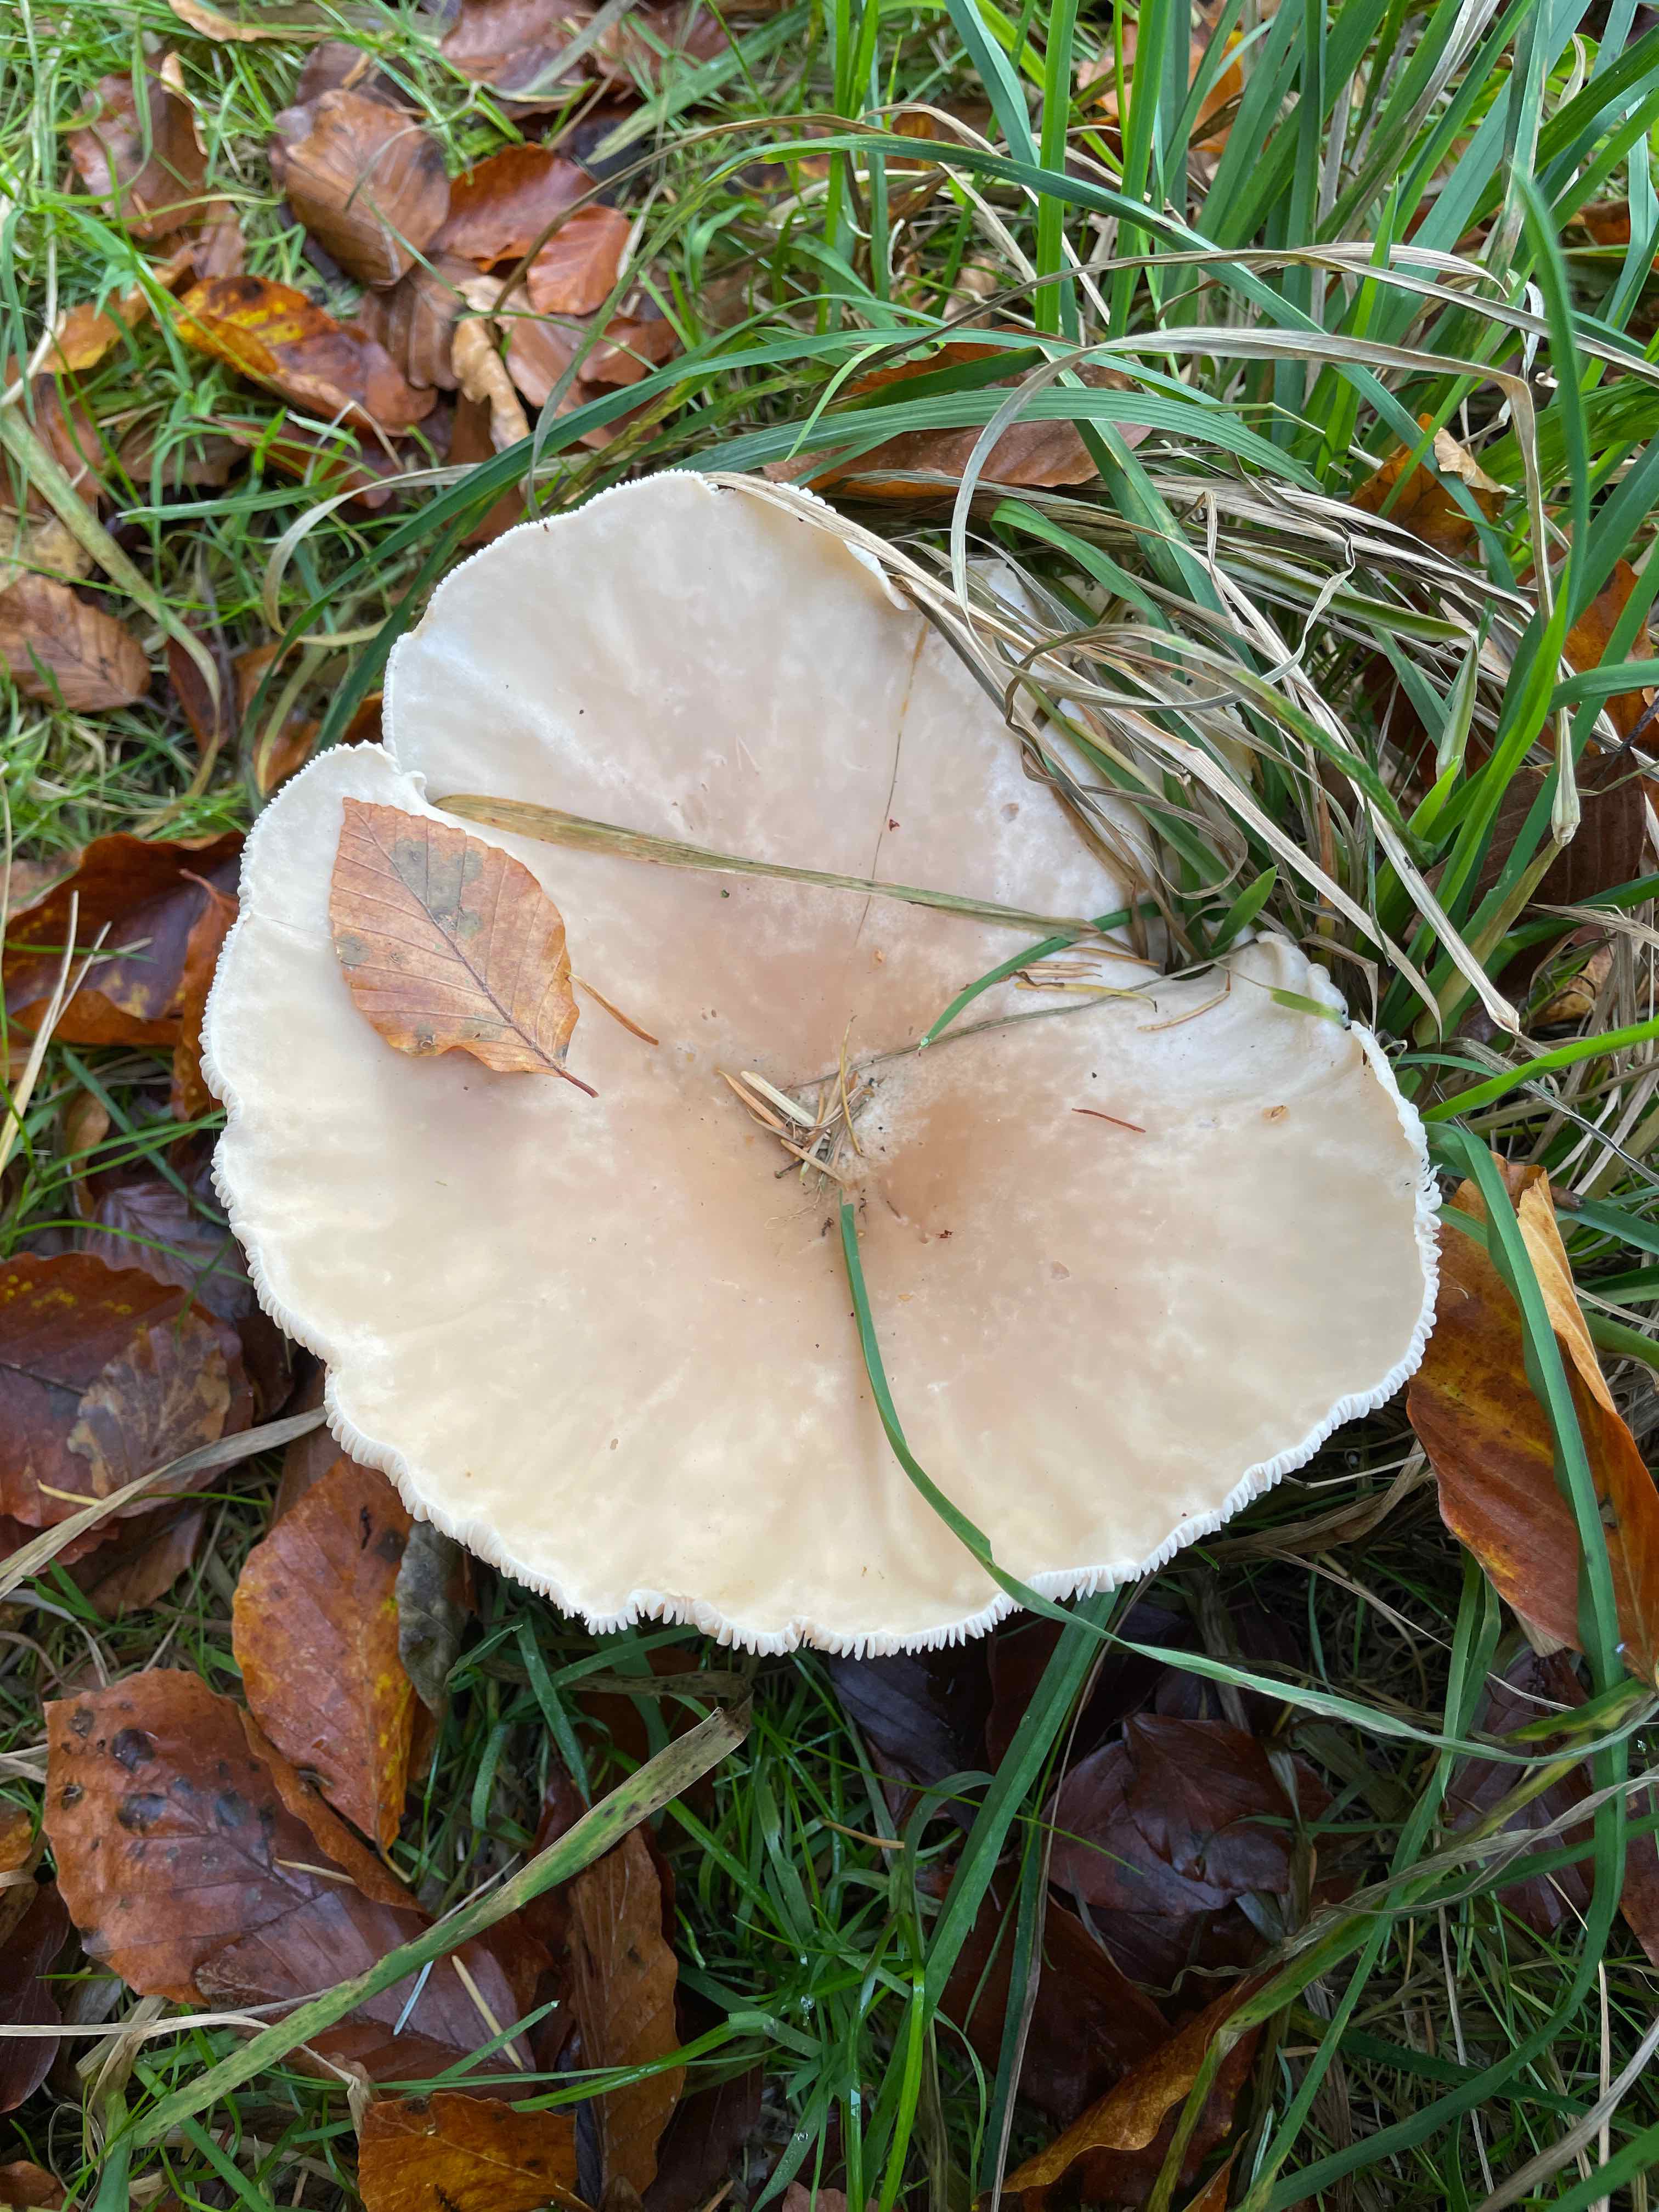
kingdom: Fungi
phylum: Basidiomycota
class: Agaricomycetes
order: Agaricales
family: Tricholomataceae
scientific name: Tricholomataceae
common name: ridderhatfamilien
